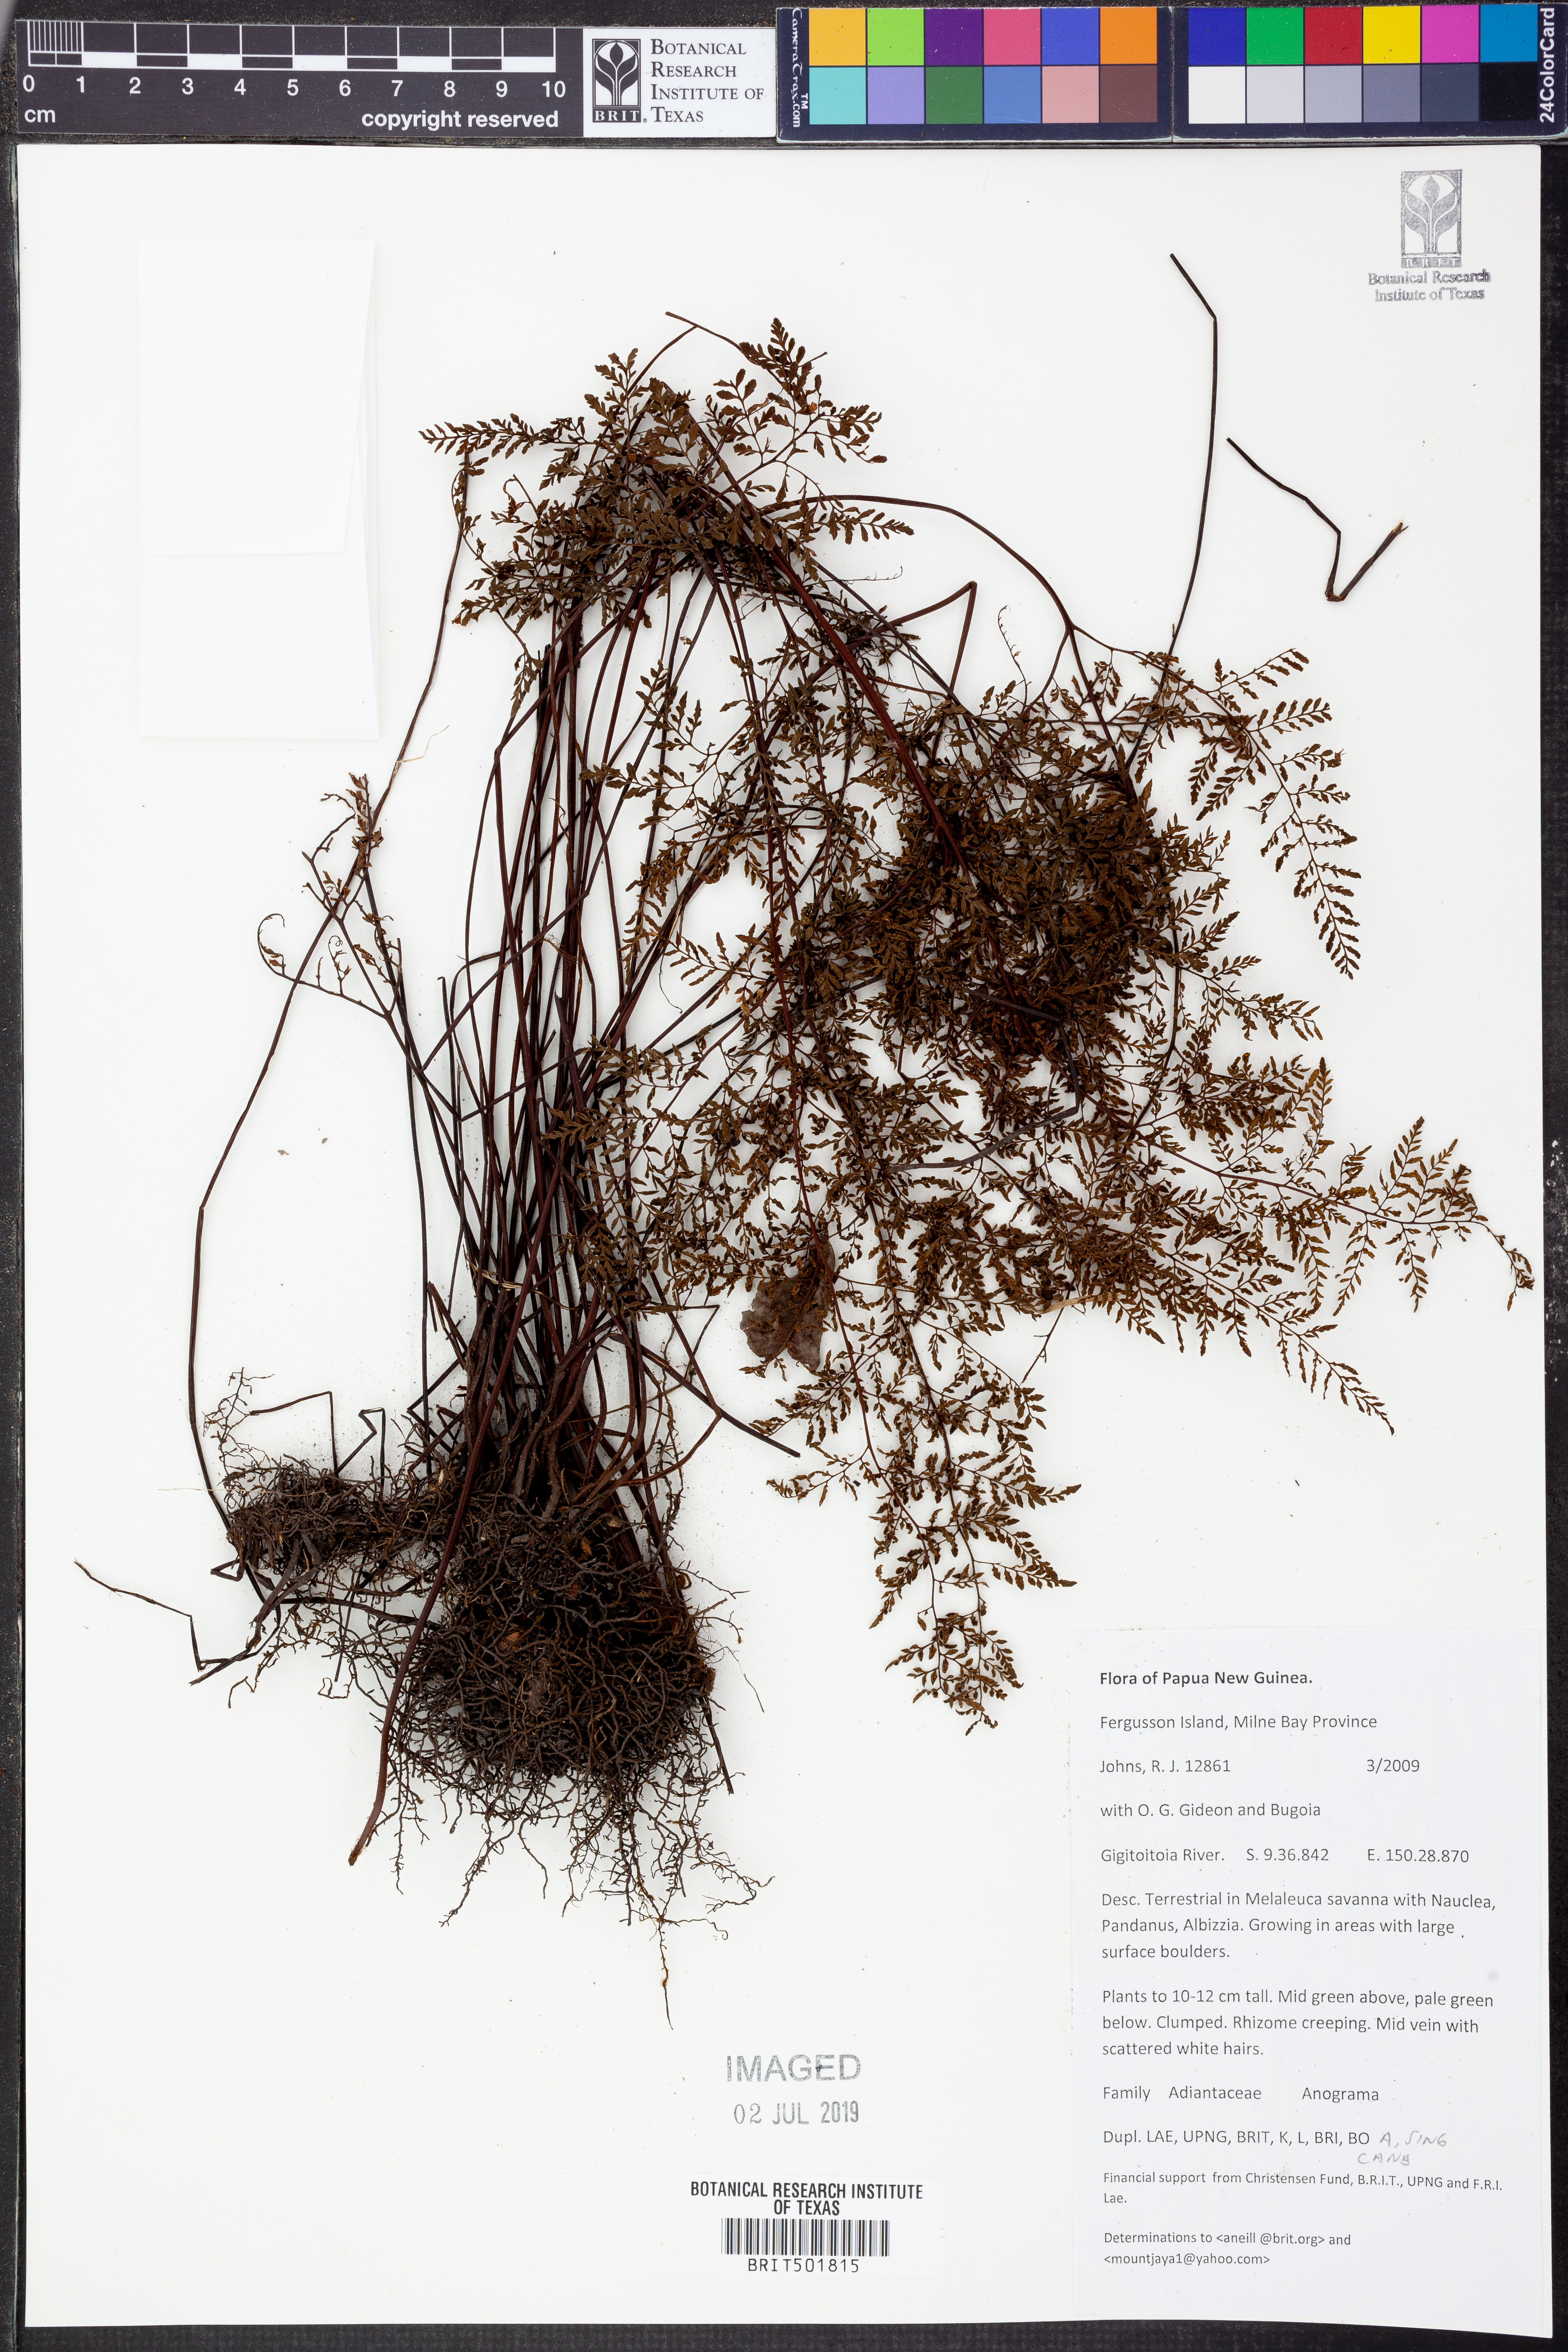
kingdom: Plantae
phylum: Tracheophyta
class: Polypodiopsida
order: Polypodiales
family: Pteridaceae
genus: Anogramma
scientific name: Anogramma
